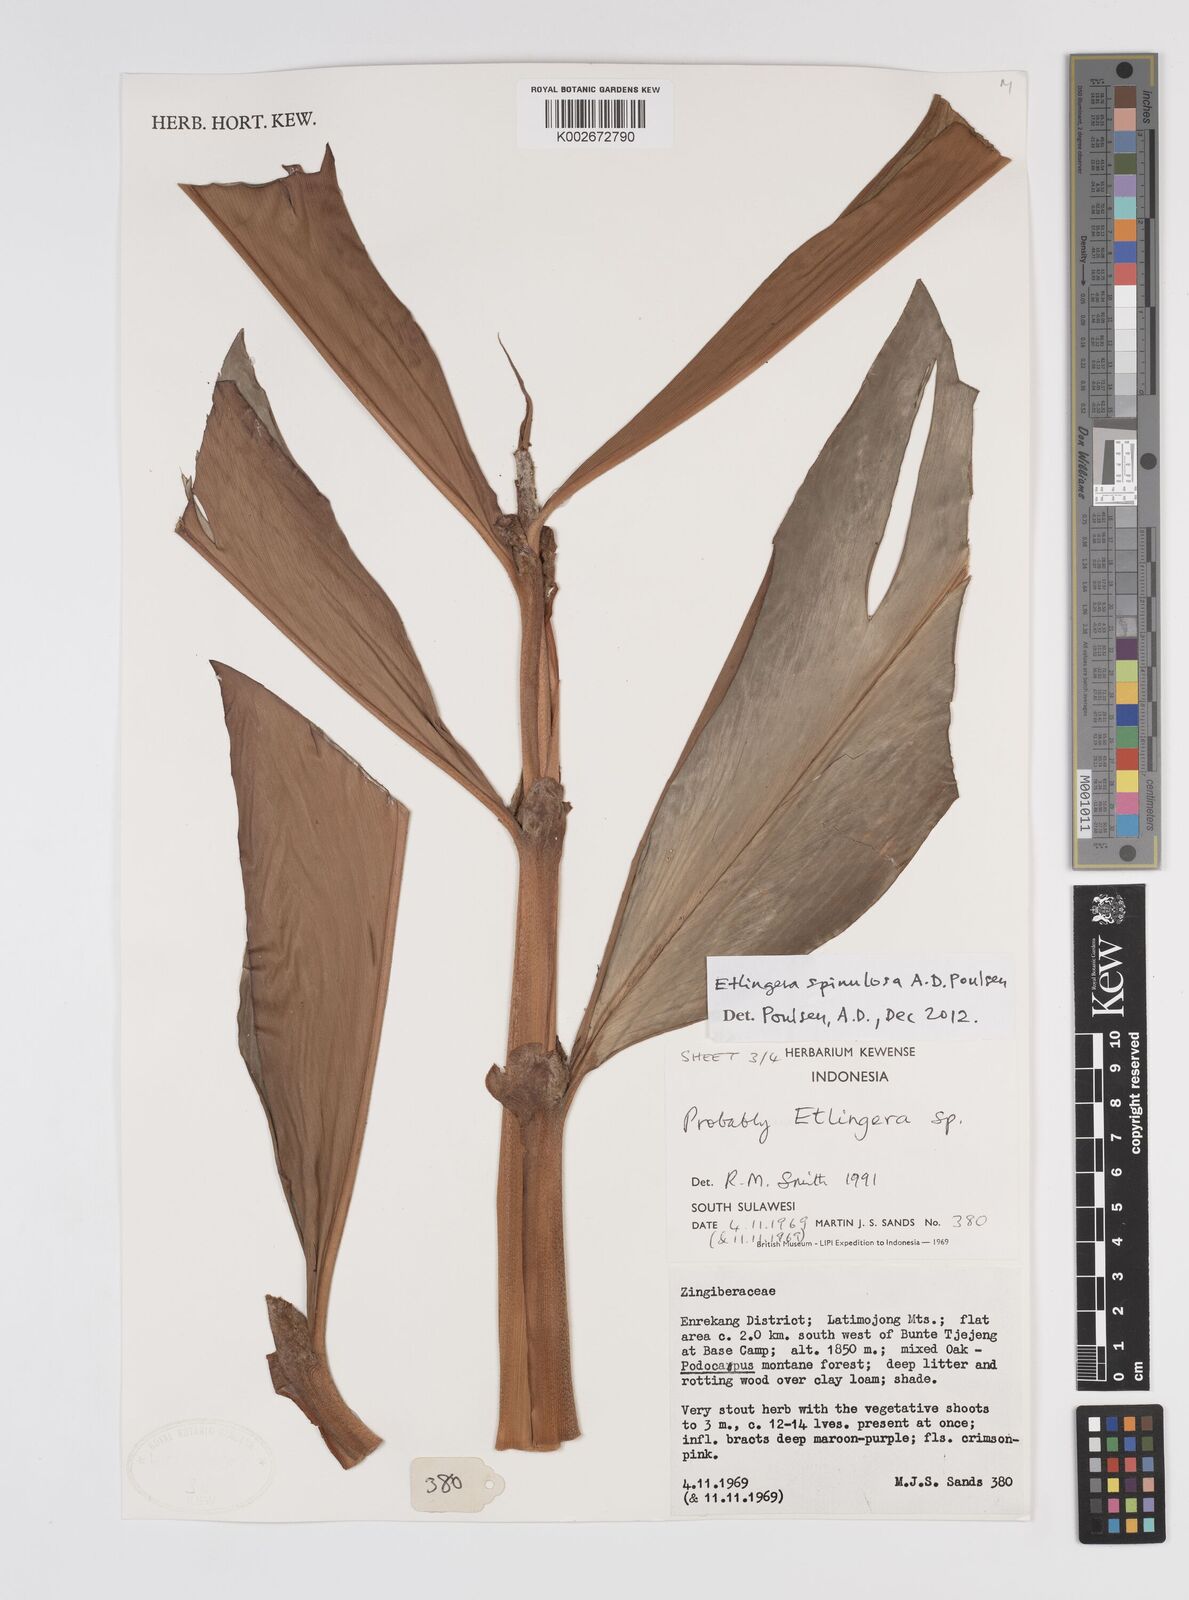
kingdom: Plantae
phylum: Tracheophyta
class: Liliopsida
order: Zingiberales
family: Zingiberaceae
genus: Etlingera
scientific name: Etlingera spinulosa
